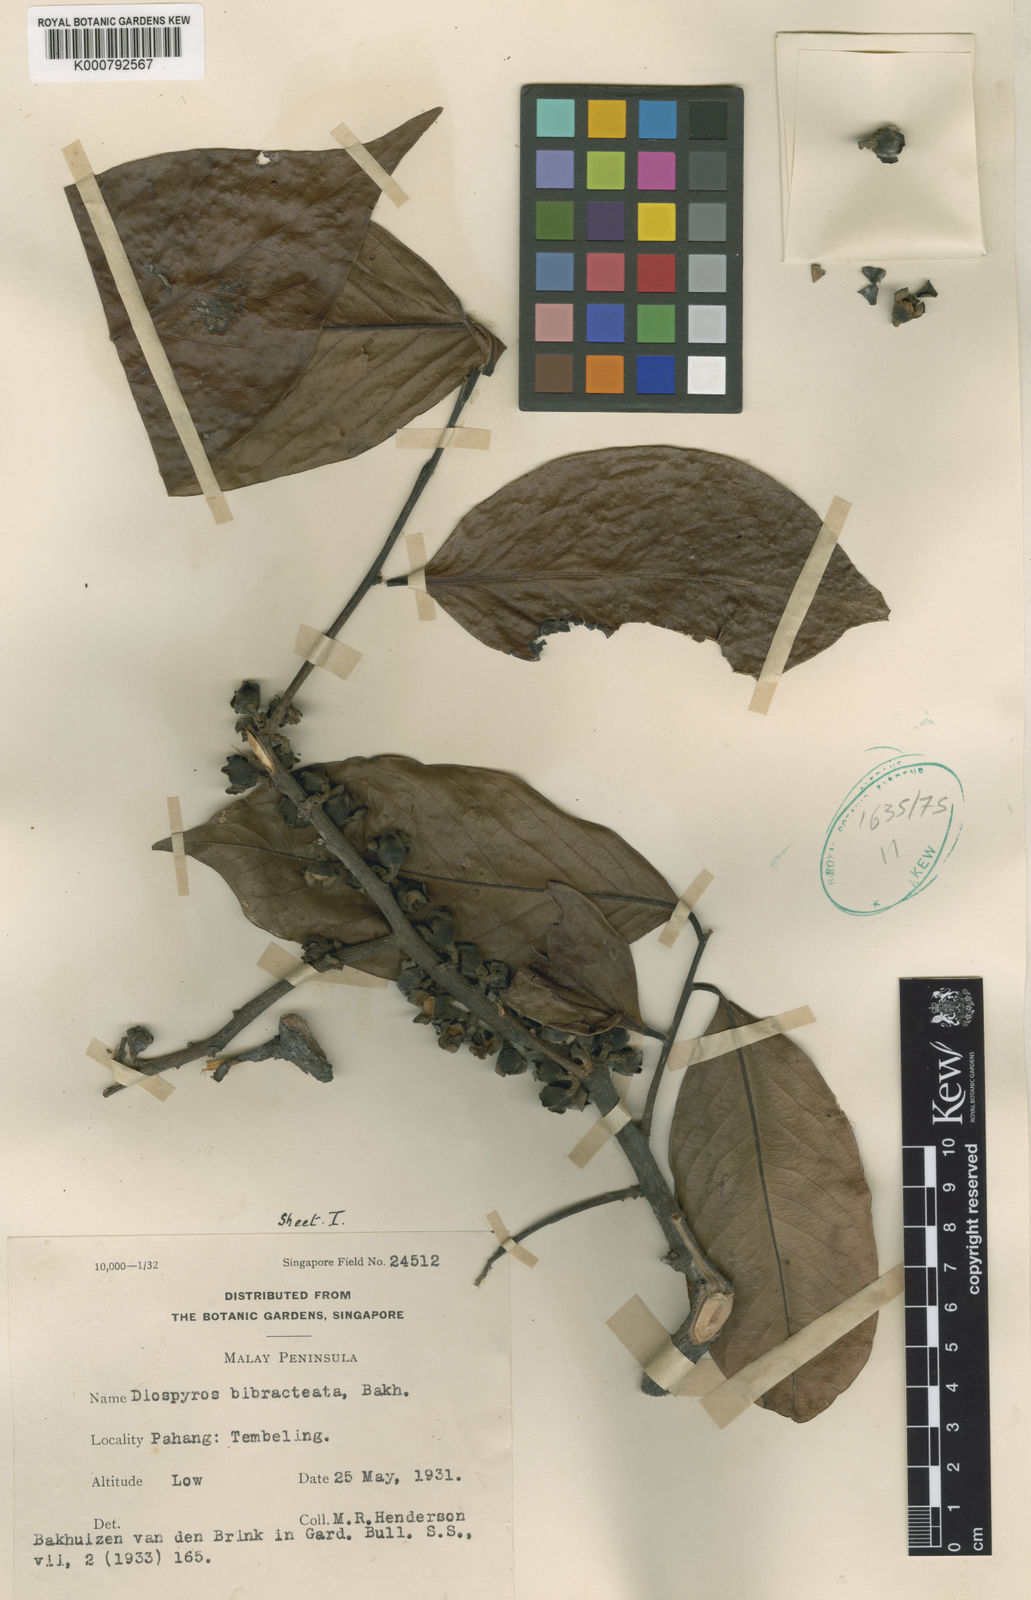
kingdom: Plantae
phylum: Tracheophyta
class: Magnoliopsida
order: Ericales
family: Ebenaceae
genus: Diospyros
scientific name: Diospyros bibracteata
